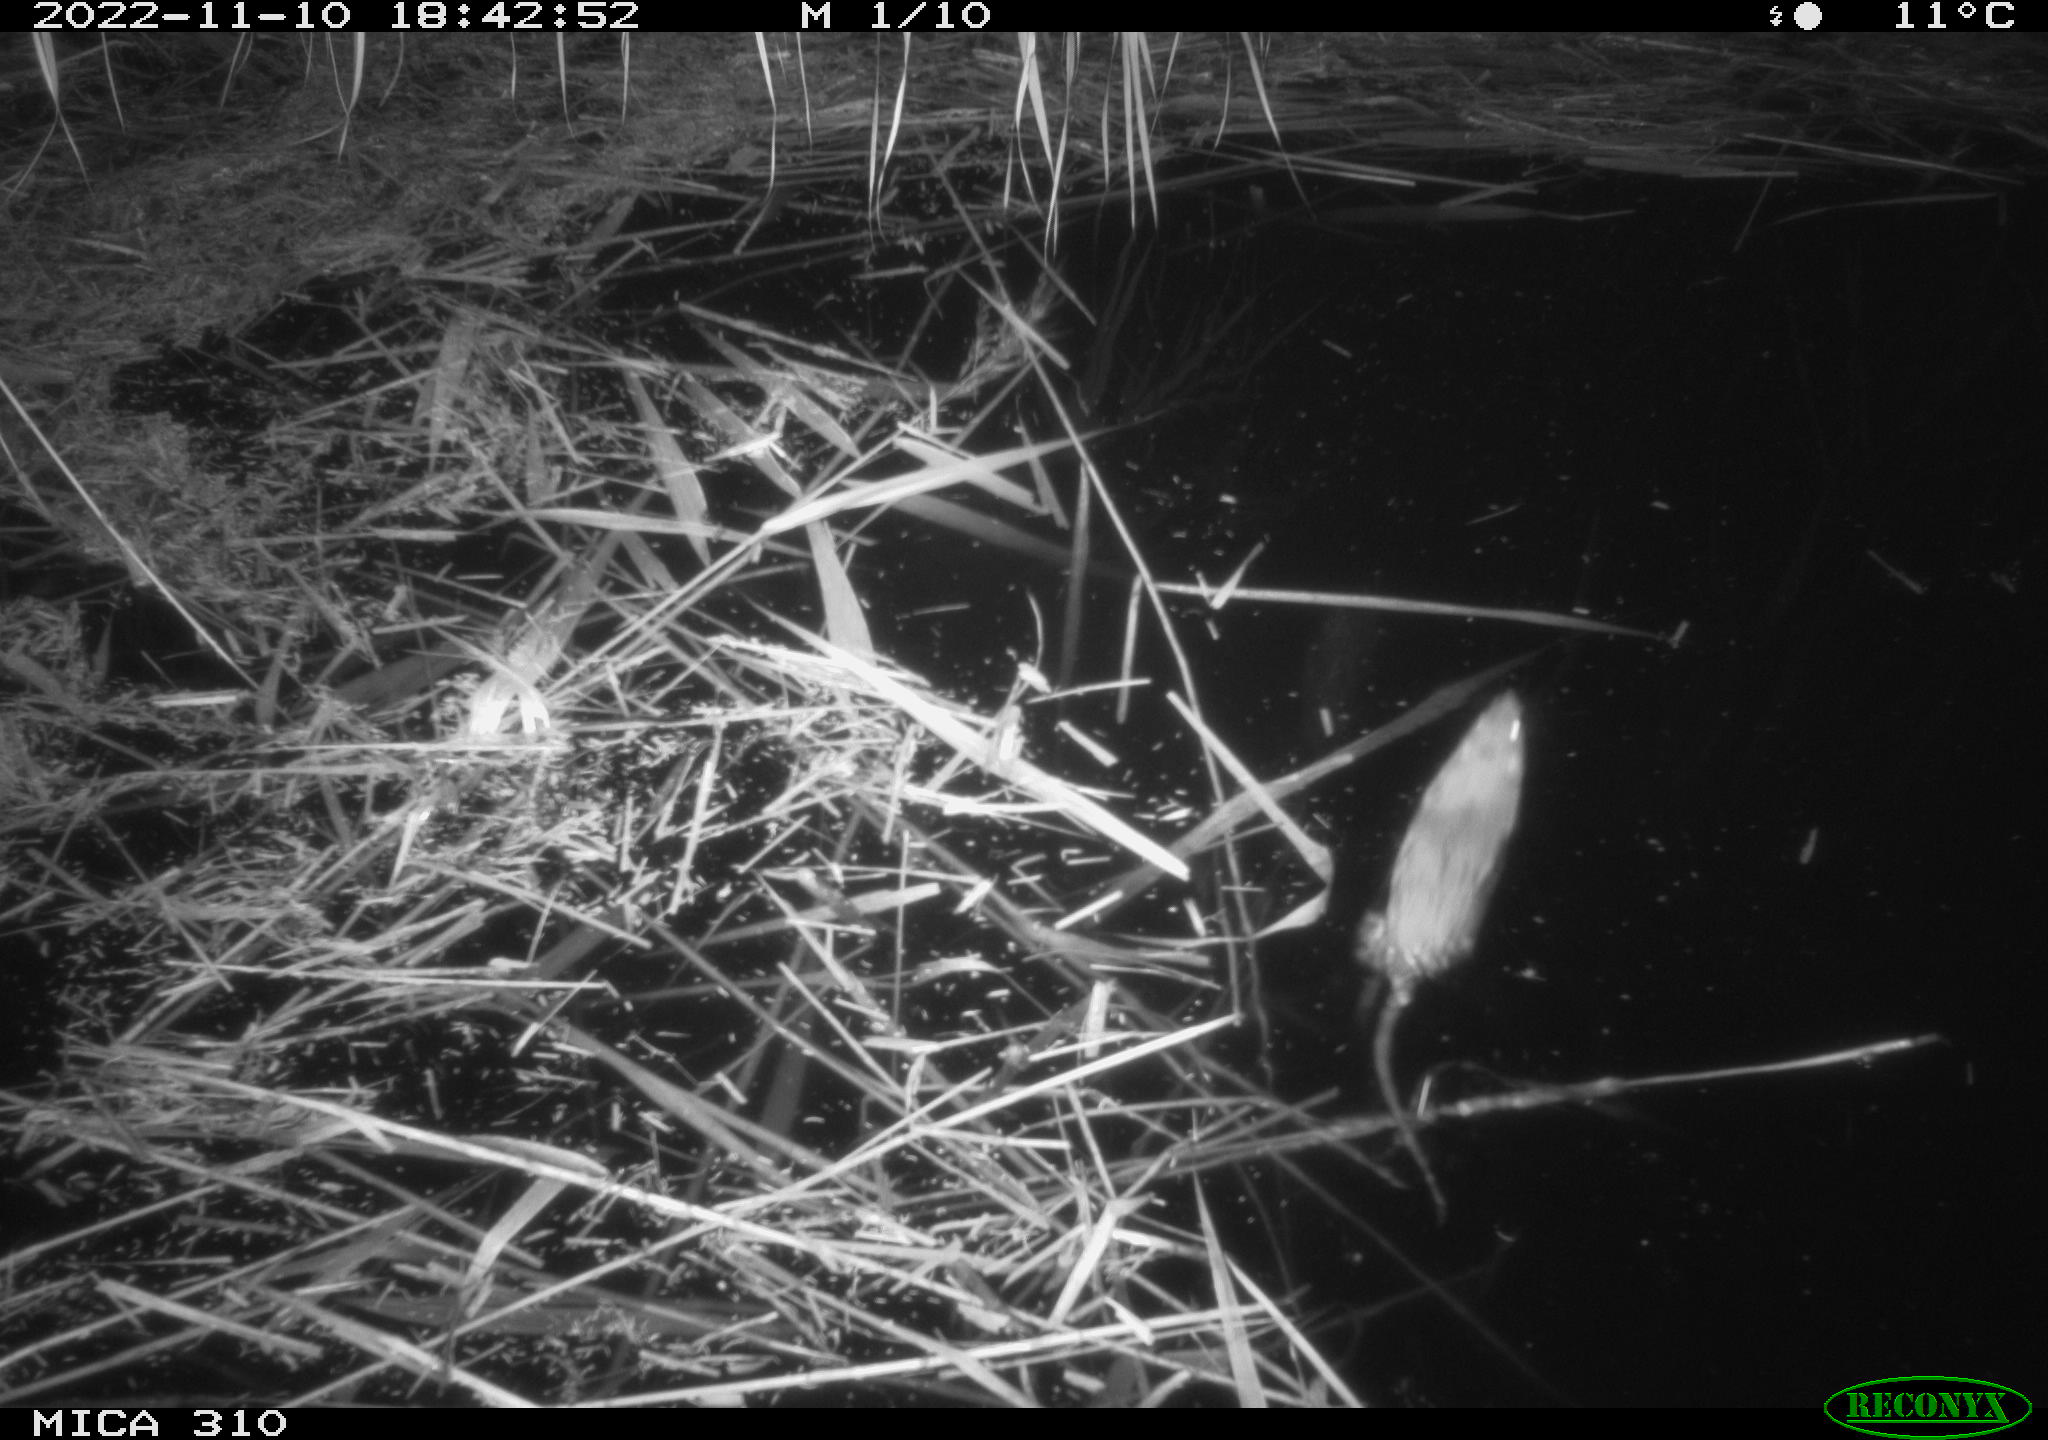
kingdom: Animalia
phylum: Chordata
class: Mammalia
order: Rodentia
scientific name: Rodentia
